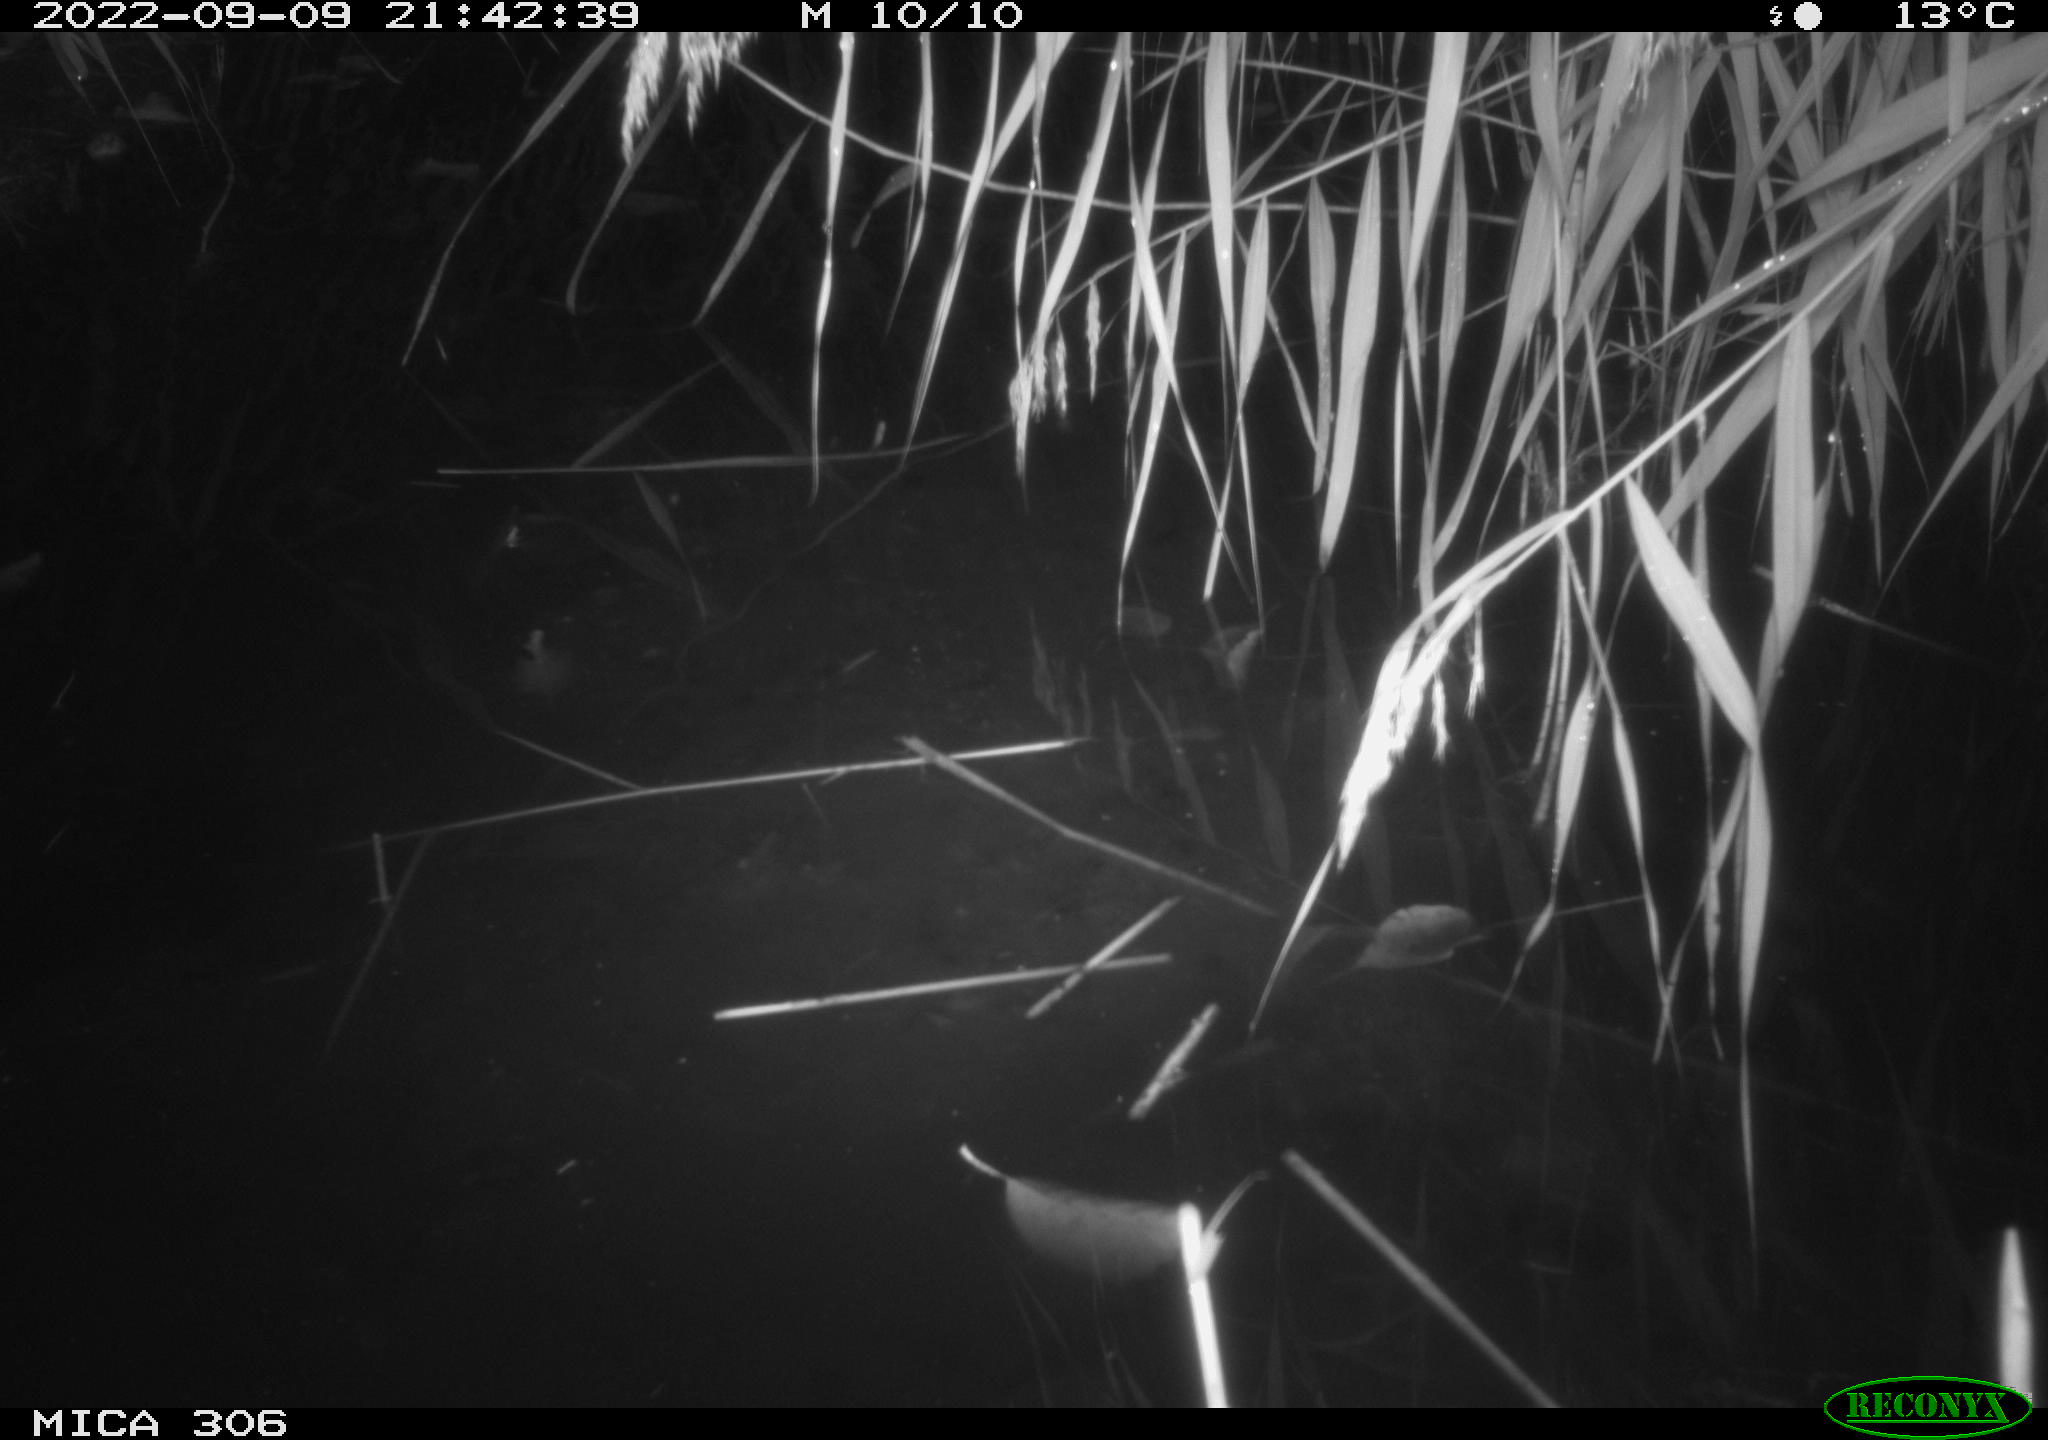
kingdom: Animalia
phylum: Chordata
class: Mammalia
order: Rodentia
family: Muridae
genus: Rattus
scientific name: Rattus norvegicus
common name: Brown rat
